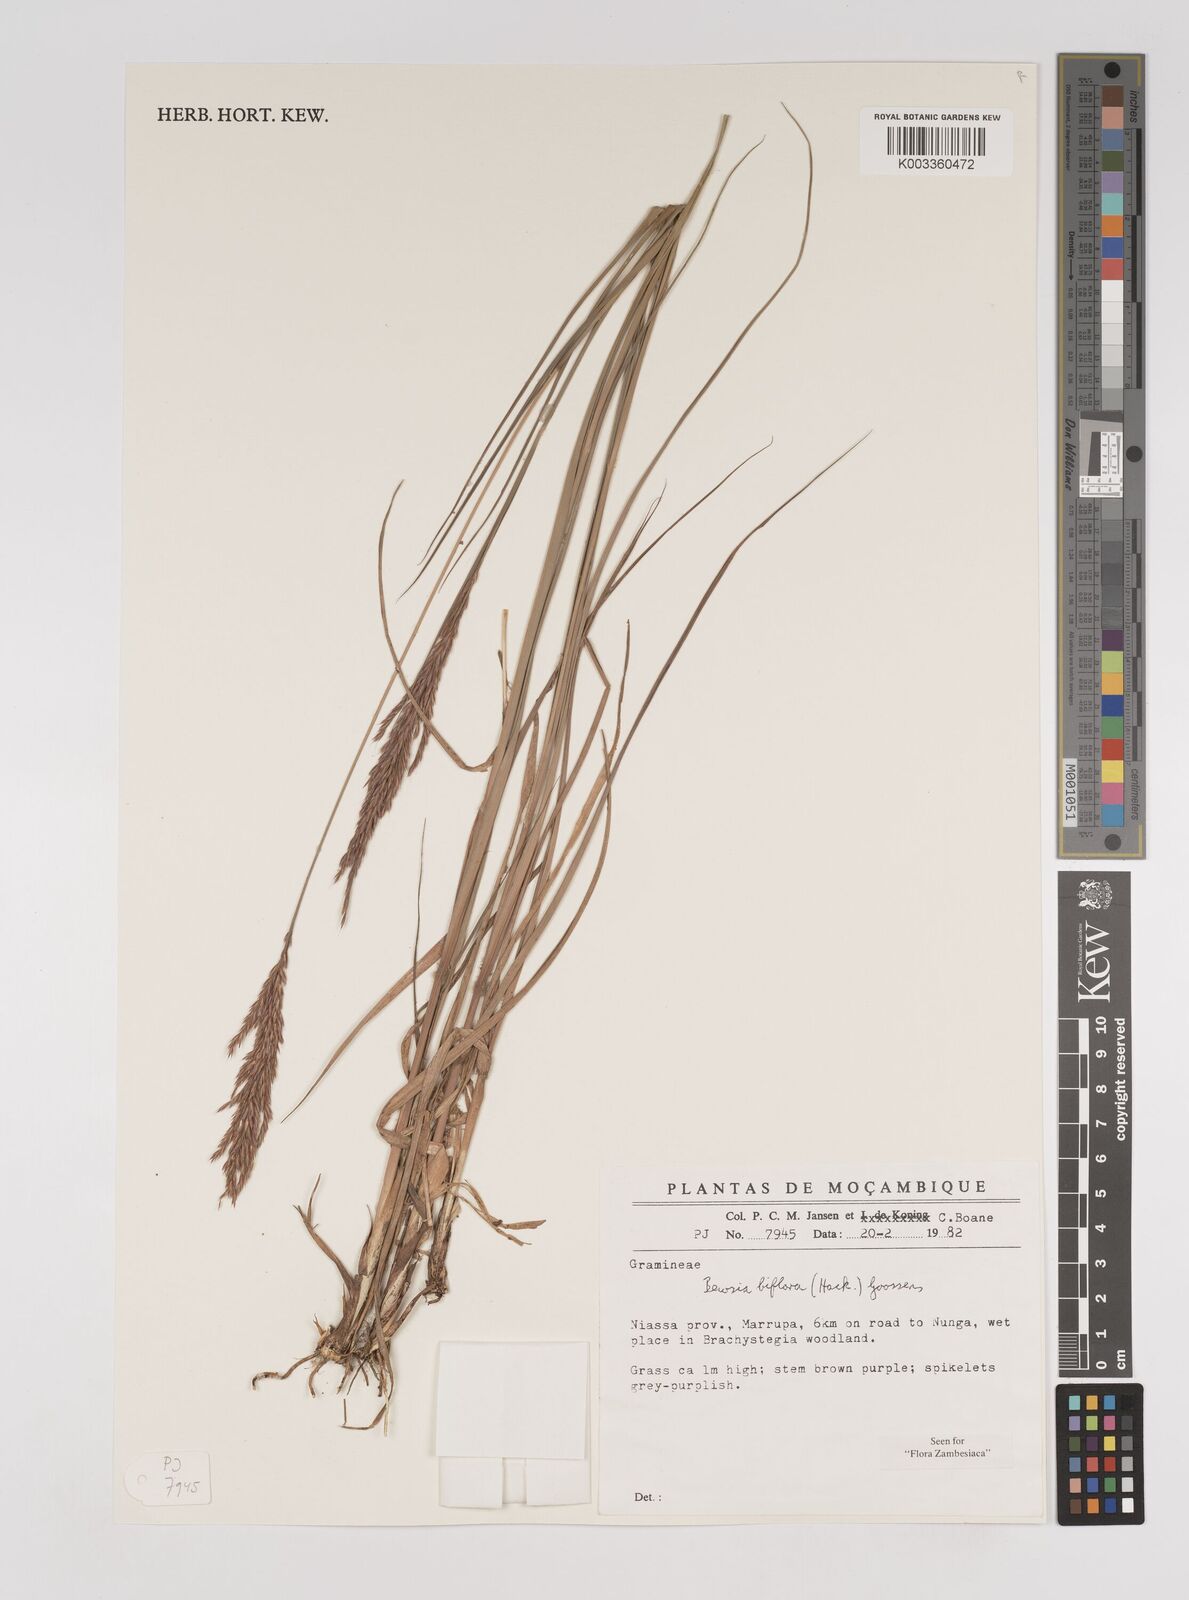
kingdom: Plantae
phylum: Tracheophyta
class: Liliopsida
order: Poales
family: Poaceae
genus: Bewsia
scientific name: Bewsia biflora
